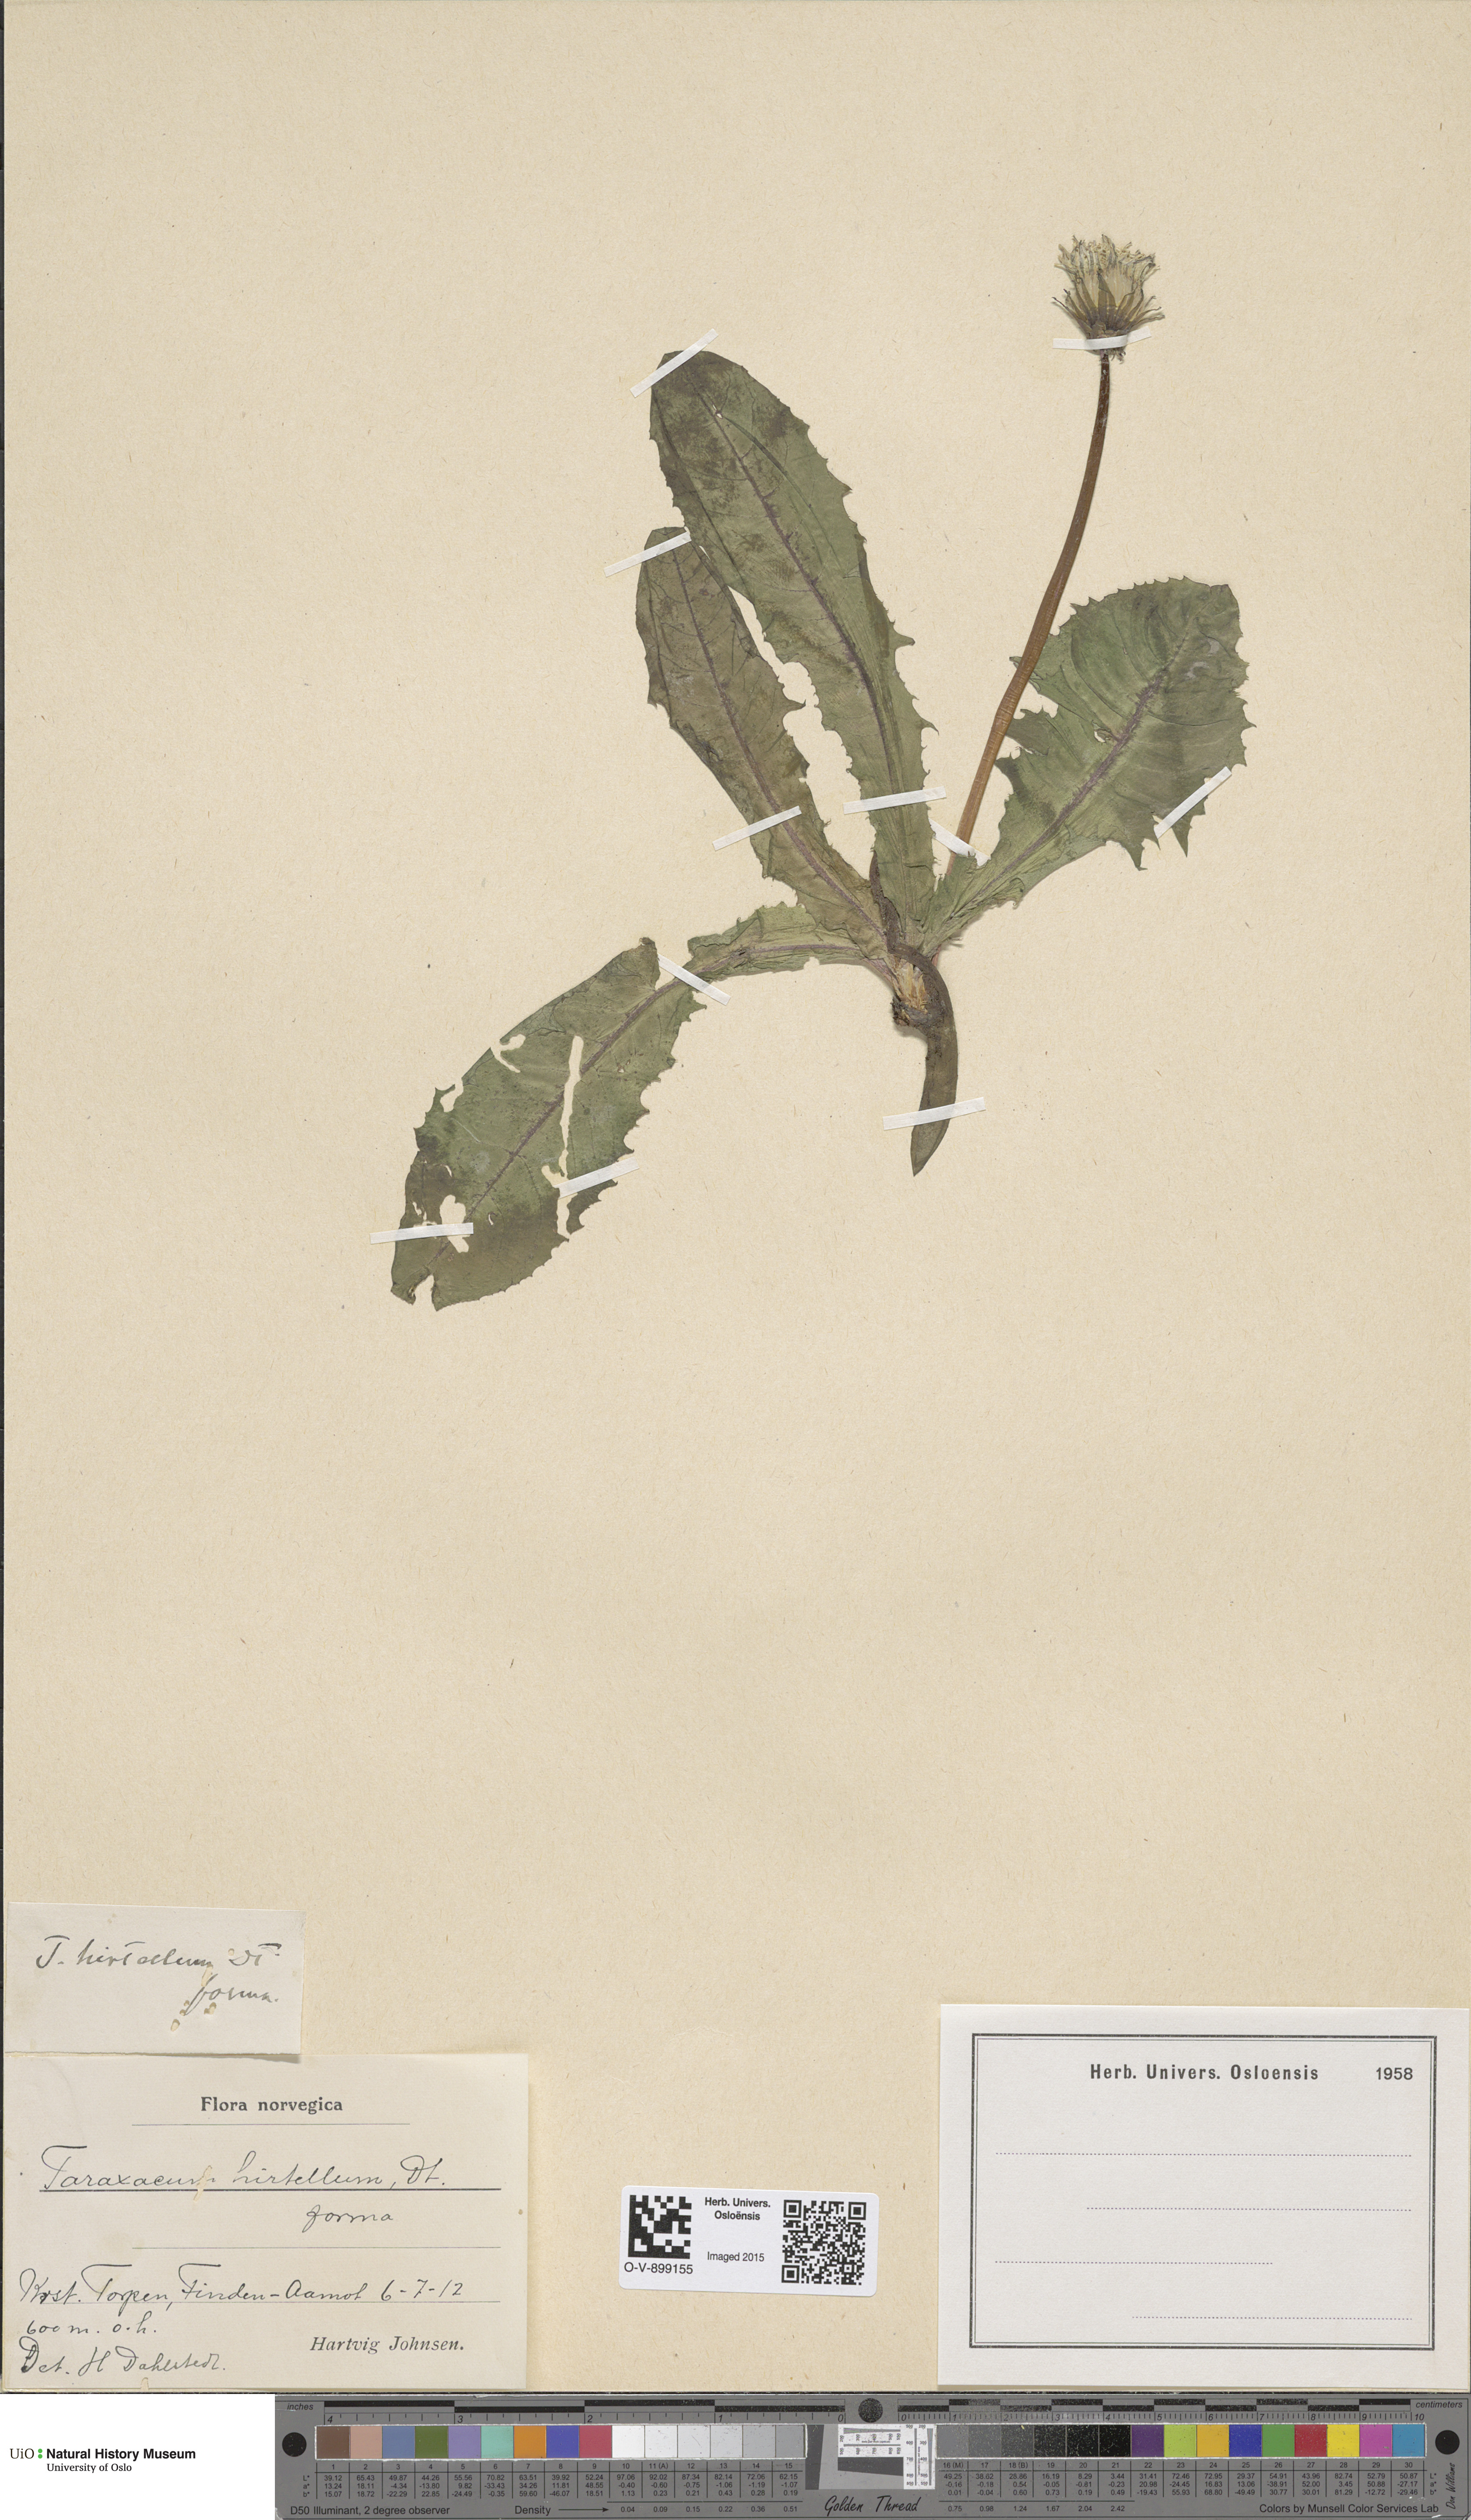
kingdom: Plantae
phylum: Tracheophyta
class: Magnoliopsida
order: Asterales
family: Asteraceae
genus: Taraxacum
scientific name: Taraxacum hirtellum
